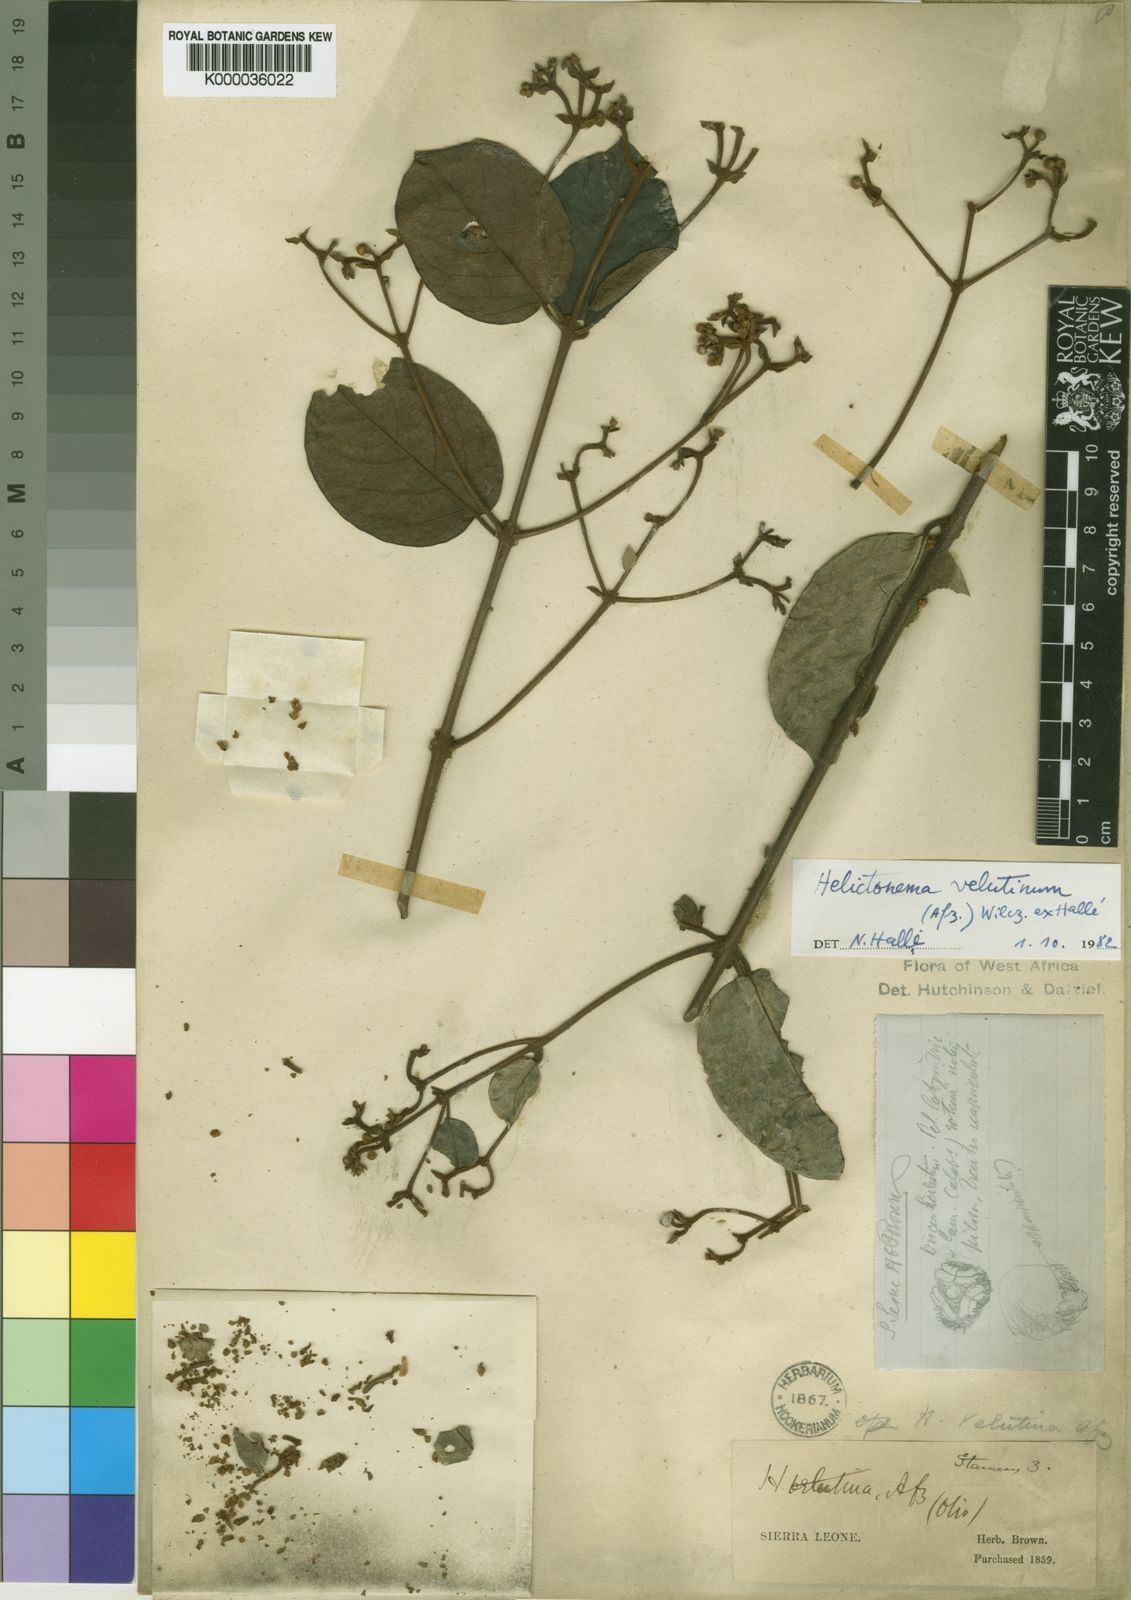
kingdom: Plantae
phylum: Tracheophyta
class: Magnoliopsida
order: Celastrales
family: Celastraceae
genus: Helictonema
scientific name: Helictonema
